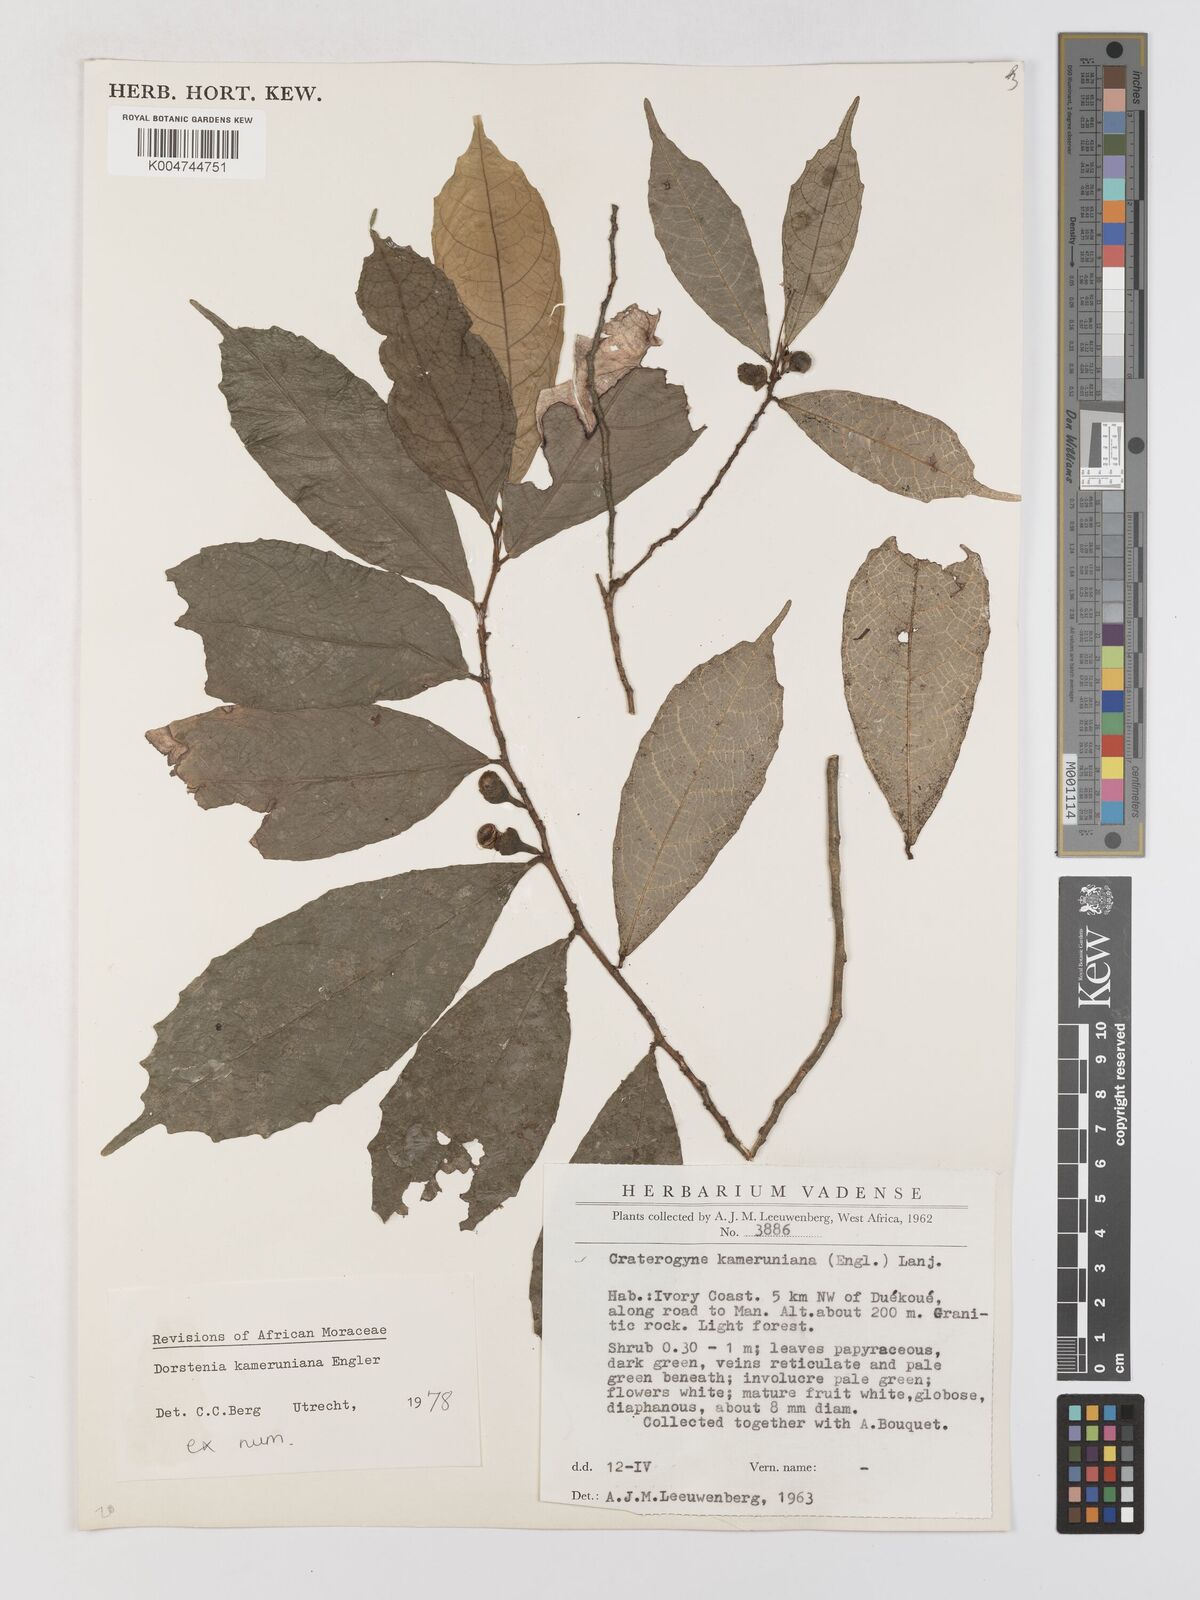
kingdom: Plantae
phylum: Tracheophyta
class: Magnoliopsida
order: Rosales
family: Moraceae
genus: Dorstenia
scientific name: Dorstenia kameruniana
